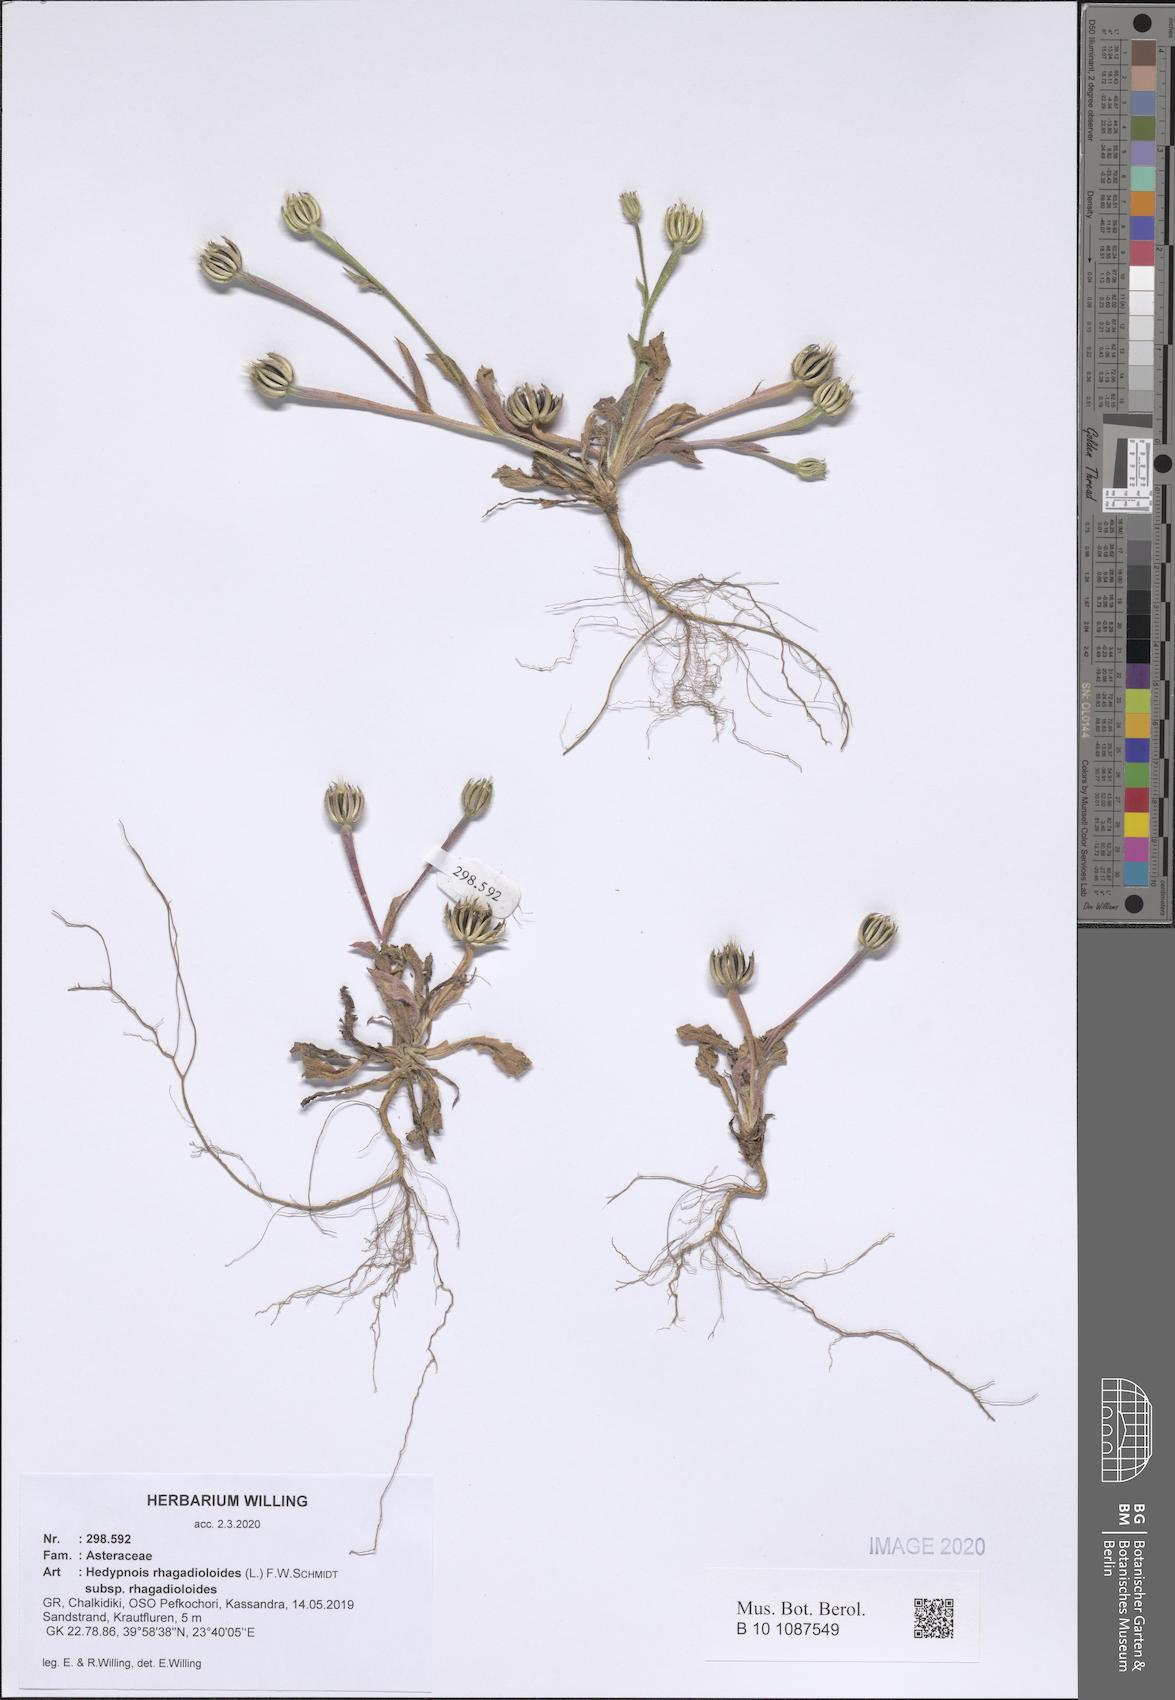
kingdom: Plantae
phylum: Tracheophyta
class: Magnoliopsida
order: Asterales
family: Asteraceae
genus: Hedypnois
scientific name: Hedypnois rhagadioloides
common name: Cretan weed
